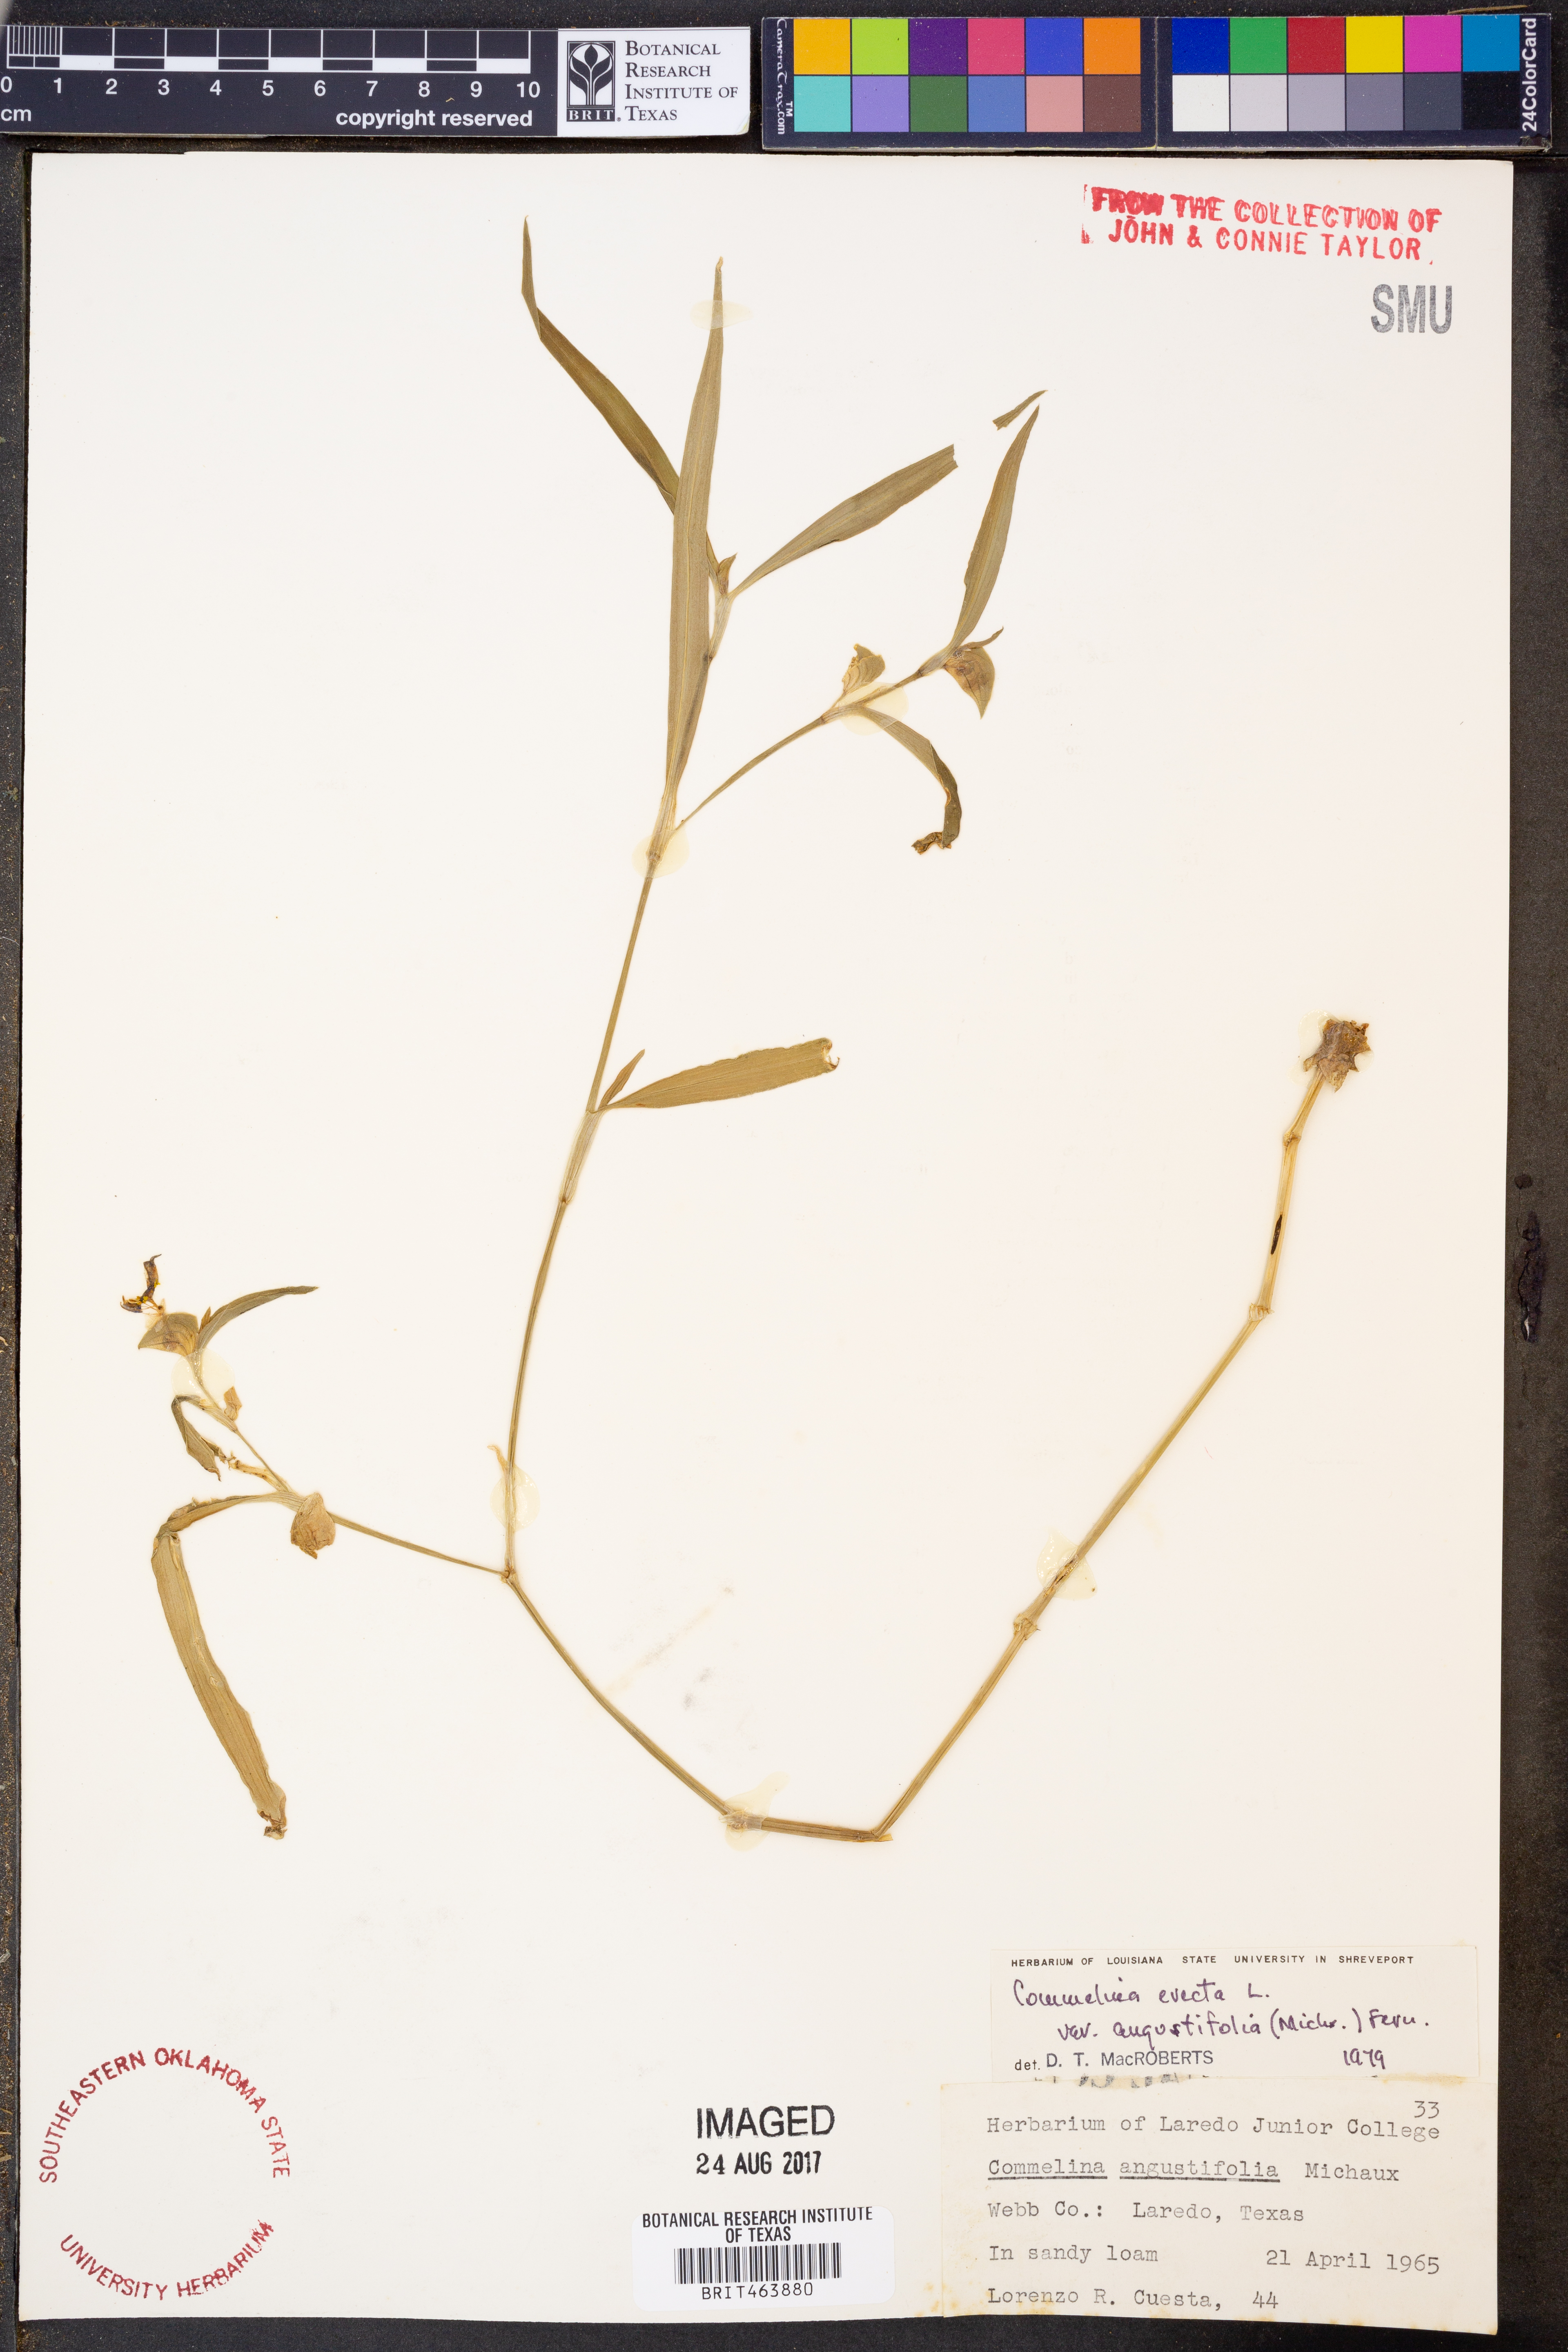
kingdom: Plantae
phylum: Tracheophyta
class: Liliopsida
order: Commelinales
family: Commelinaceae
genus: Commelina
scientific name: Commelina erecta
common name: Blousel blommetjie
